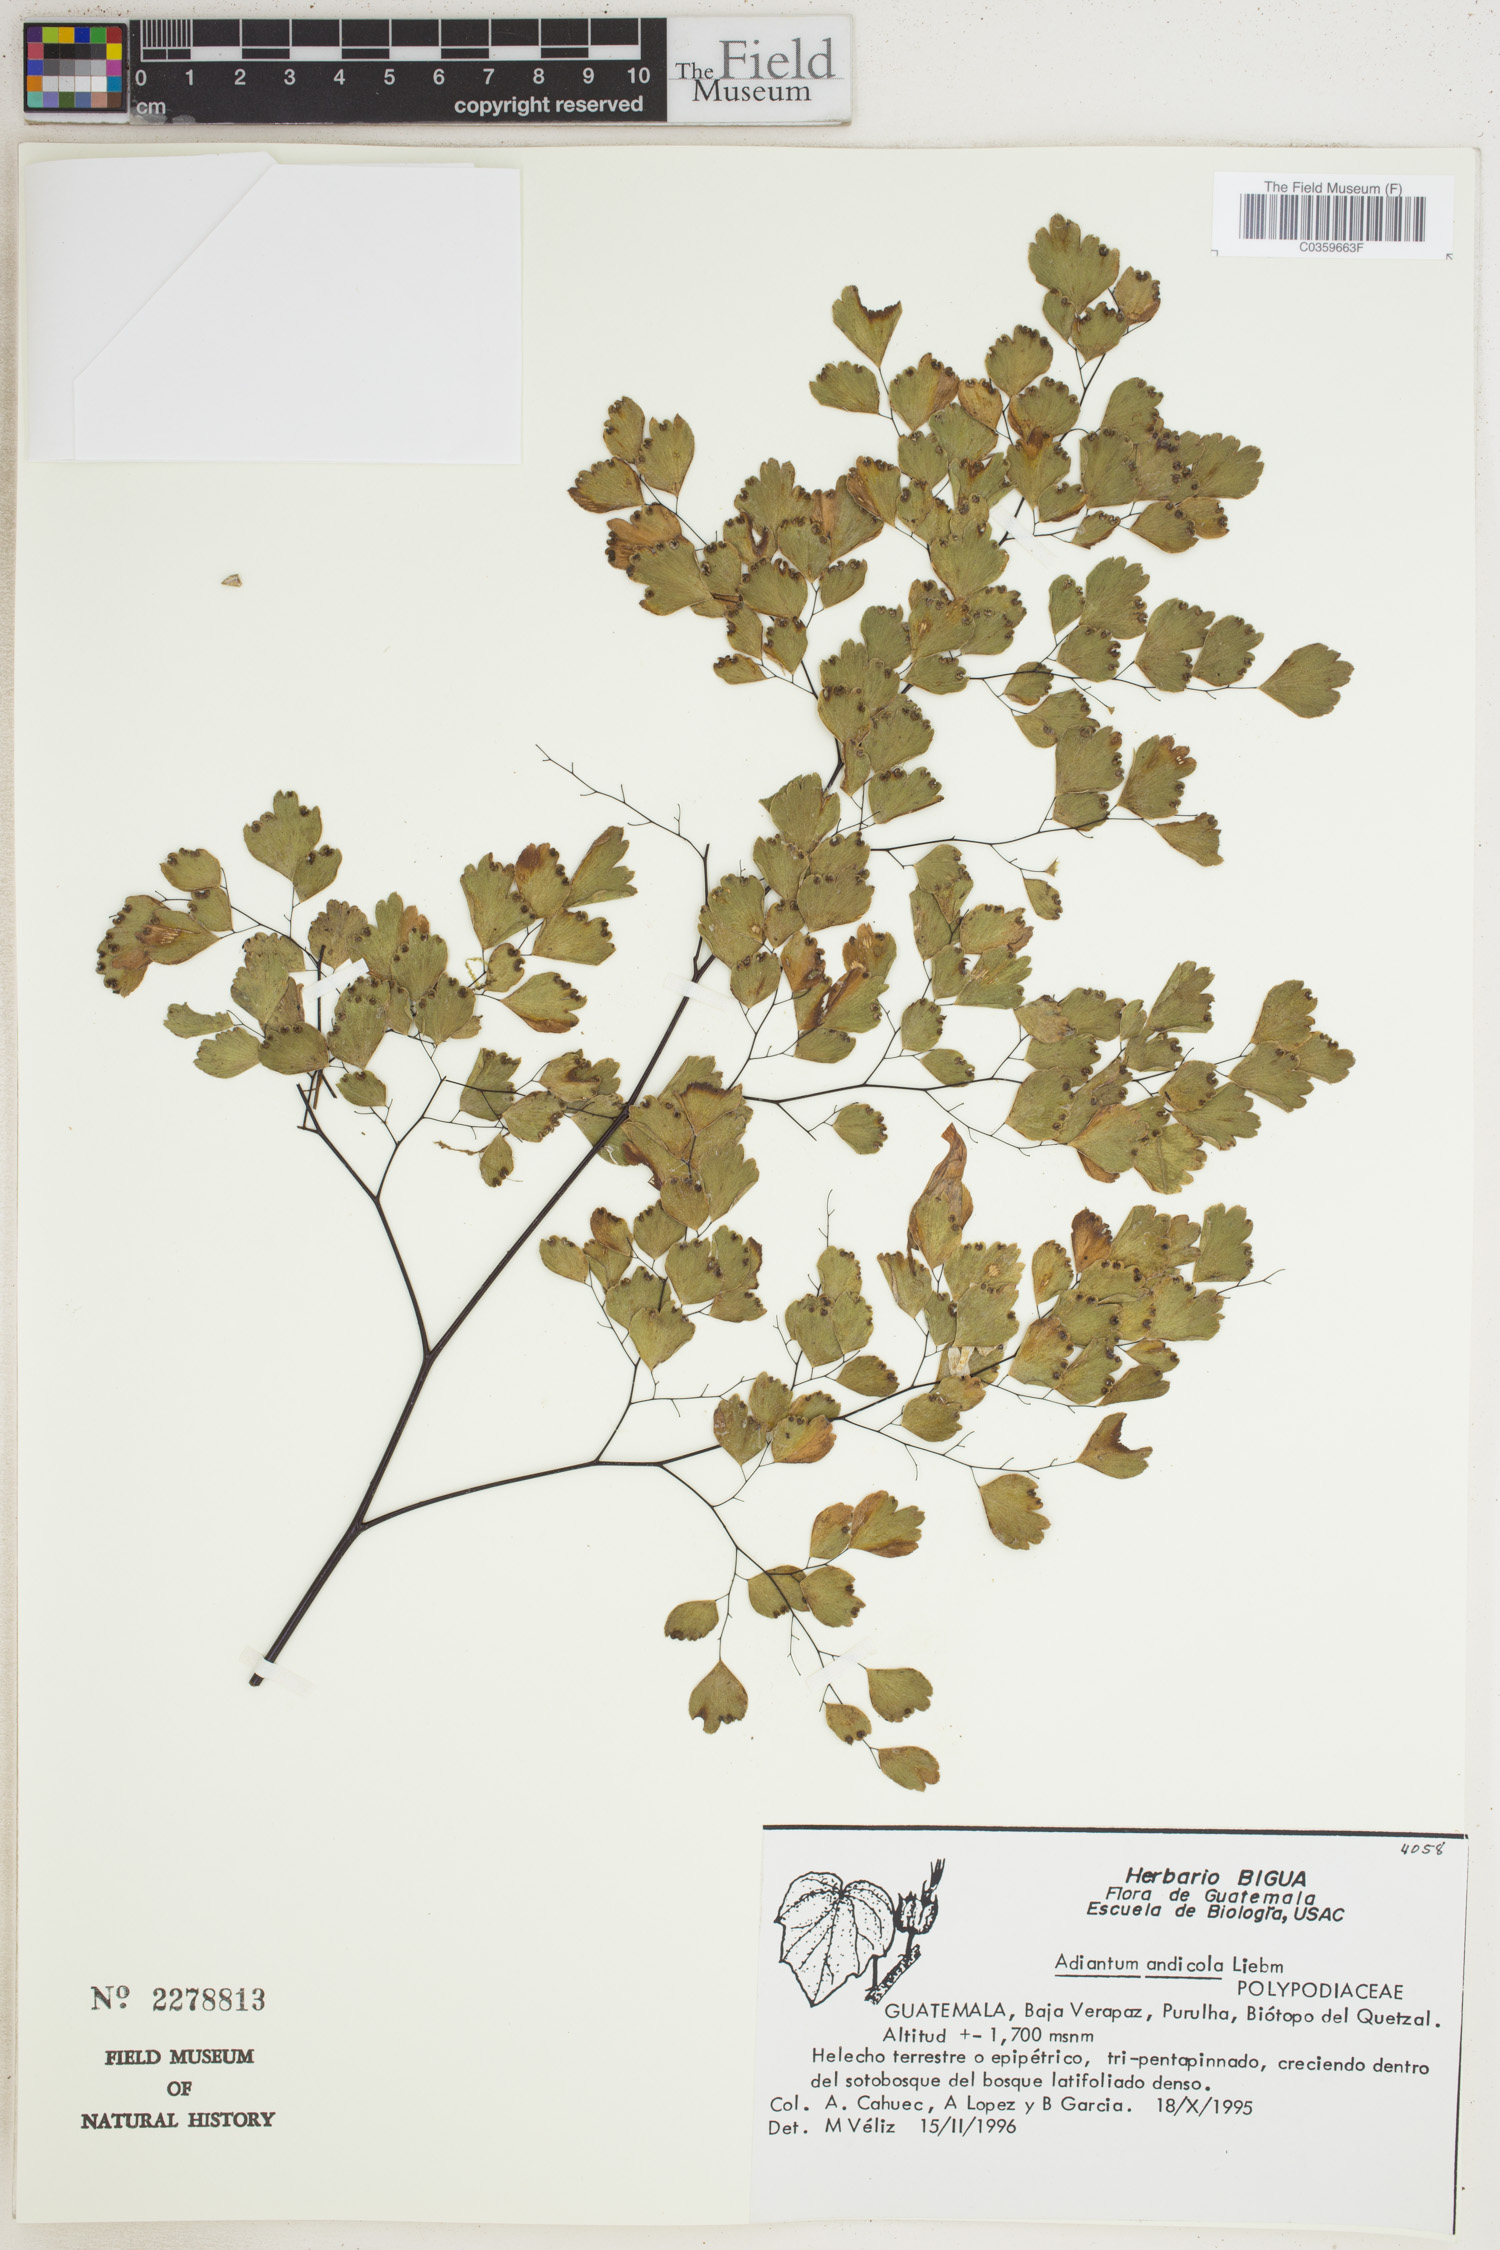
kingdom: Plantae
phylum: Tracheophyta
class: Polypodiopsida
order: Polypodiales
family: Pteridaceae
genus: Adiantum
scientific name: Adiantum andicola
